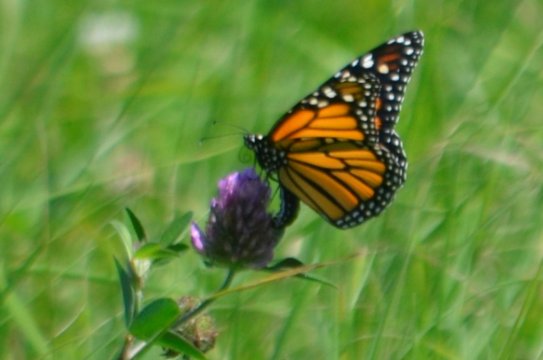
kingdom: Animalia
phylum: Arthropoda
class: Insecta
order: Lepidoptera
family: Nymphalidae
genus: Danaus
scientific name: Danaus plexippus
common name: Monarch
